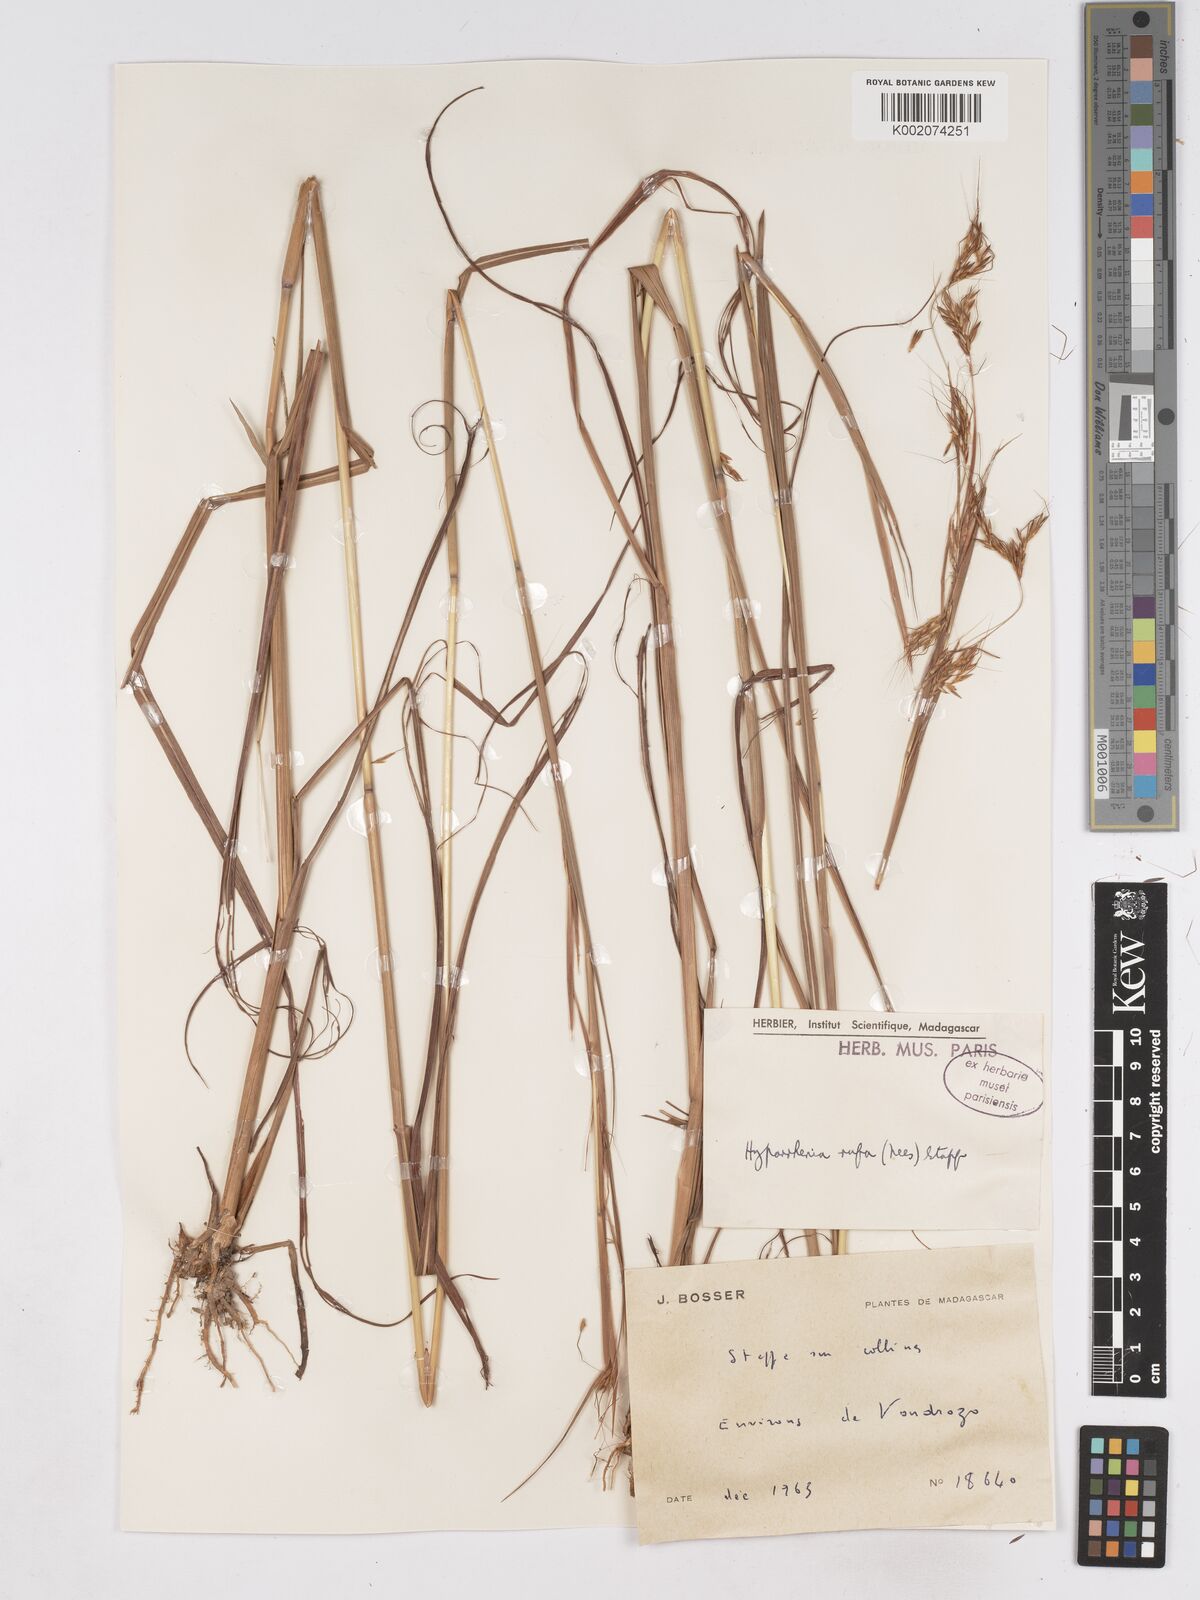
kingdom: Plantae
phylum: Tracheophyta
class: Liliopsida
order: Poales
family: Poaceae
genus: Hyparrhenia
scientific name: Hyparrhenia rufa
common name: Jaraguagrass
